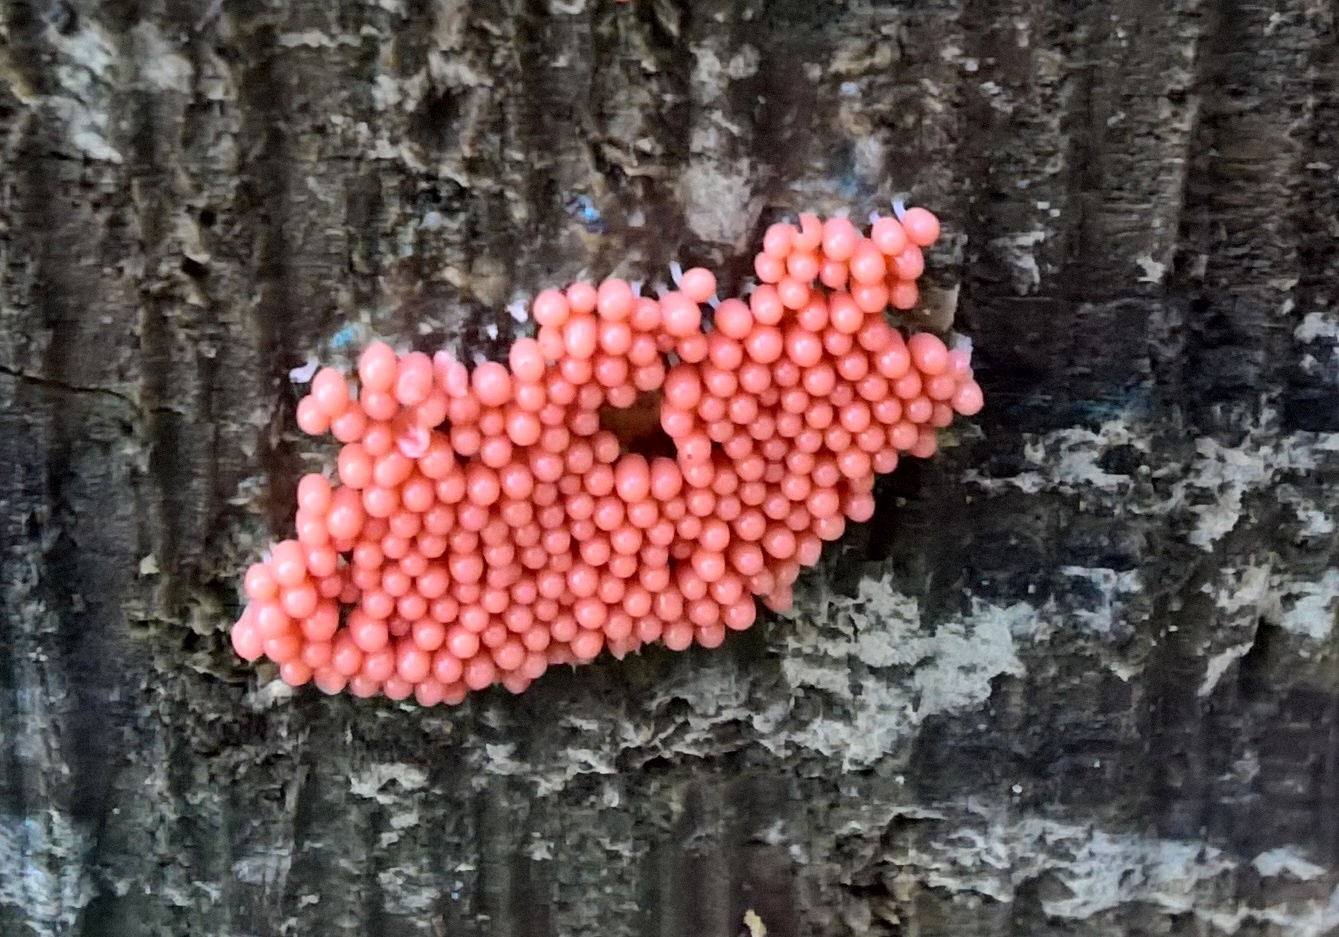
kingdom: Protozoa
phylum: Mycetozoa
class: Myxomycetes
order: Trichiales
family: Trichiaceae
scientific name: Trichiaceae
